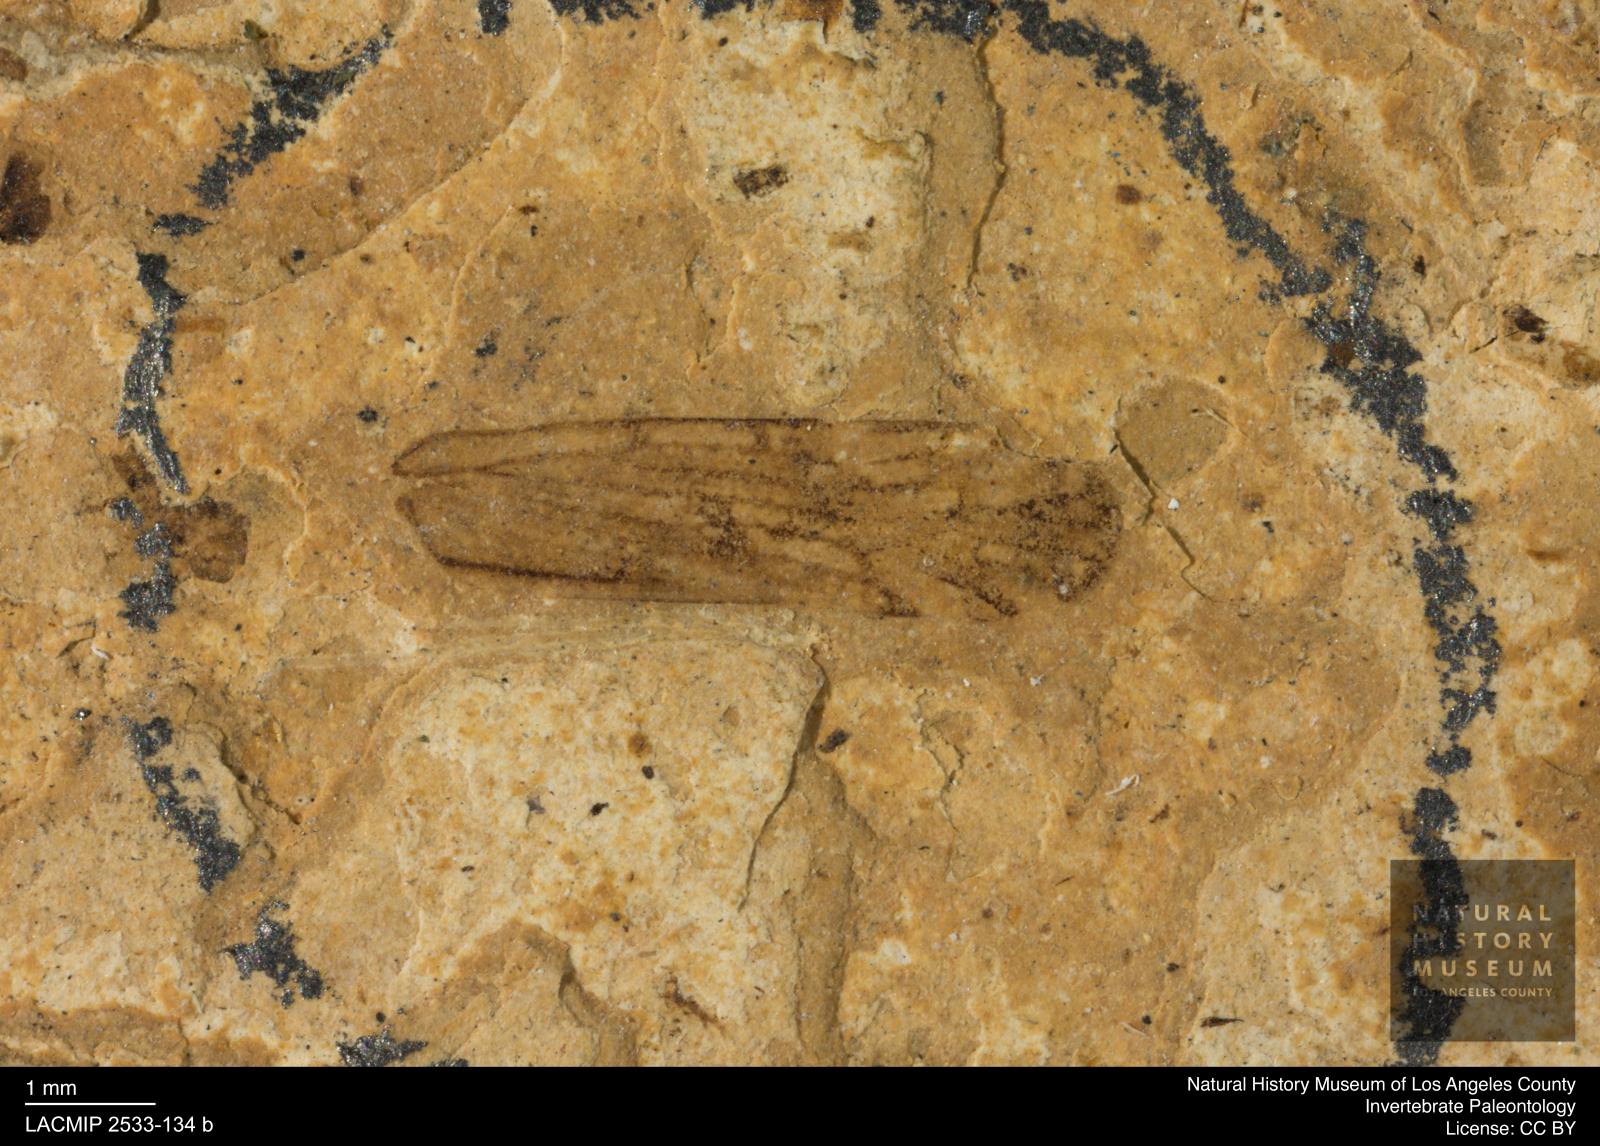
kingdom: Animalia
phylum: Arthropoda
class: Insecta
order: Hemiptera
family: Cixiidae
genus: Cixius
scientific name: Cixius
